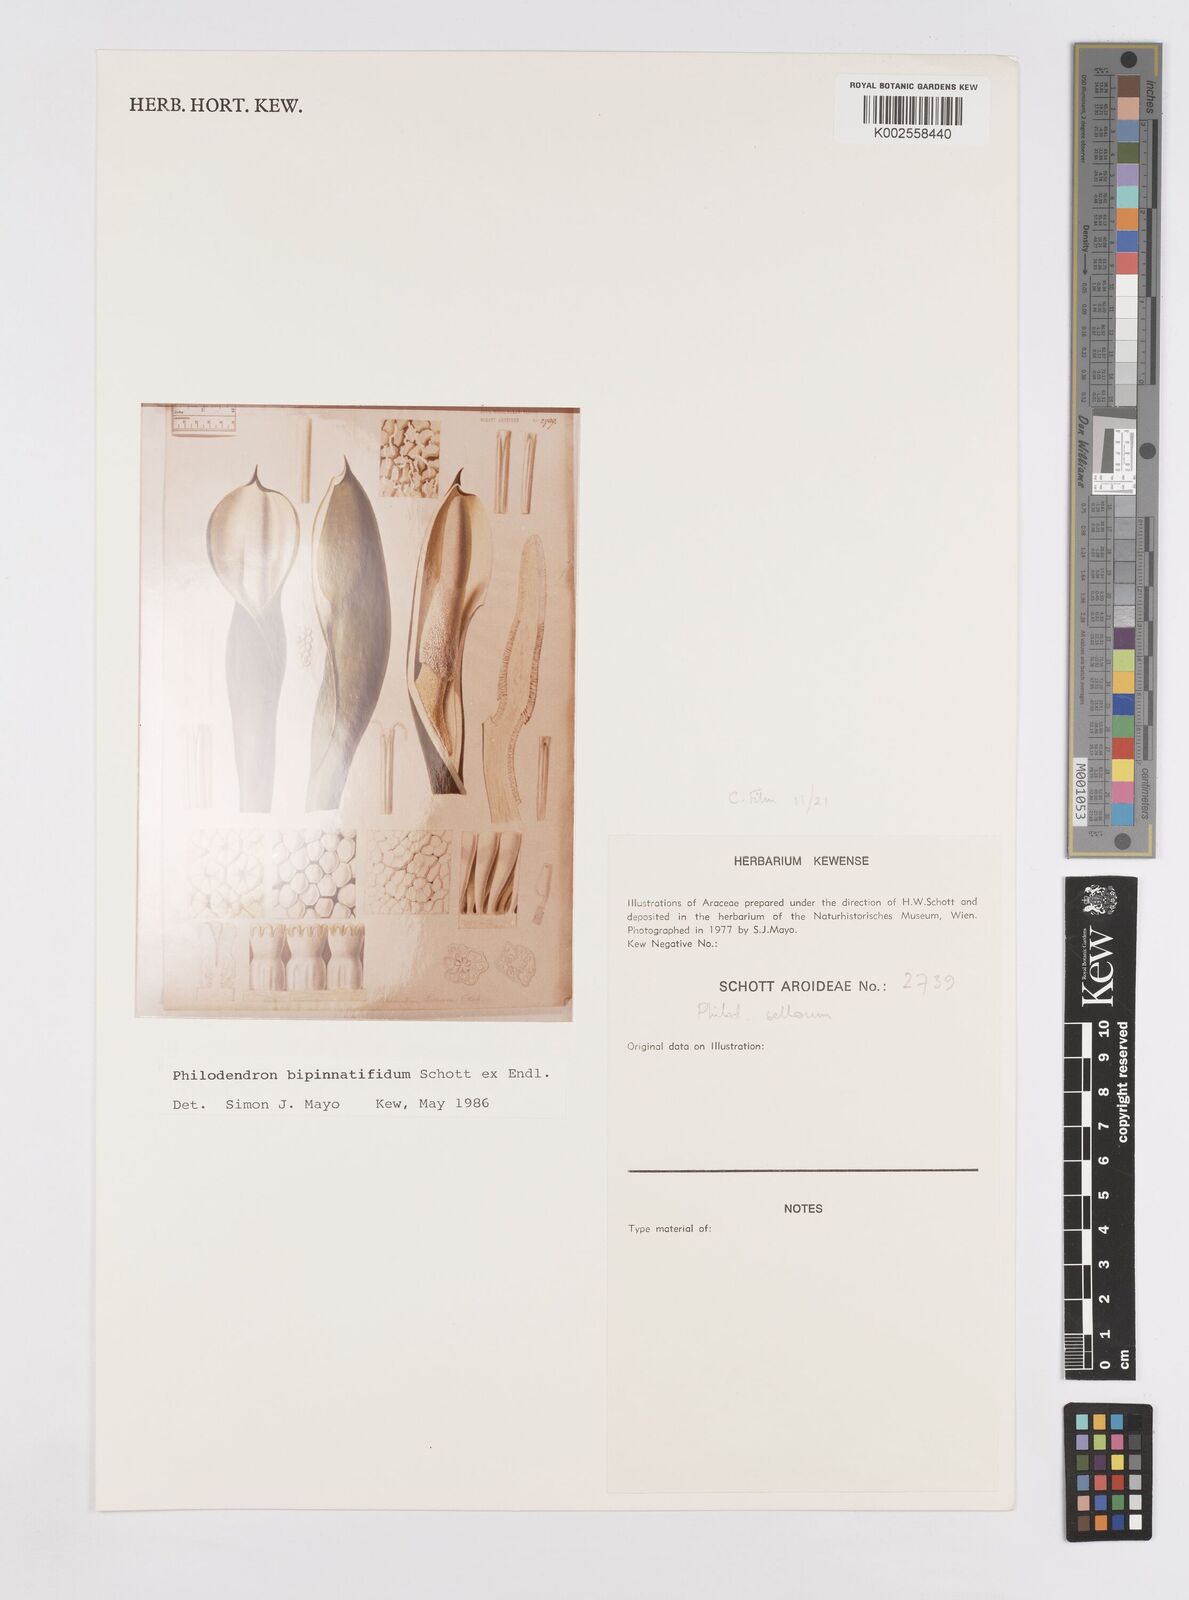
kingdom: Plantae
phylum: Tracheophyta
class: Liliopsida
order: Alismatales
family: Araceae
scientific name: Araceae
